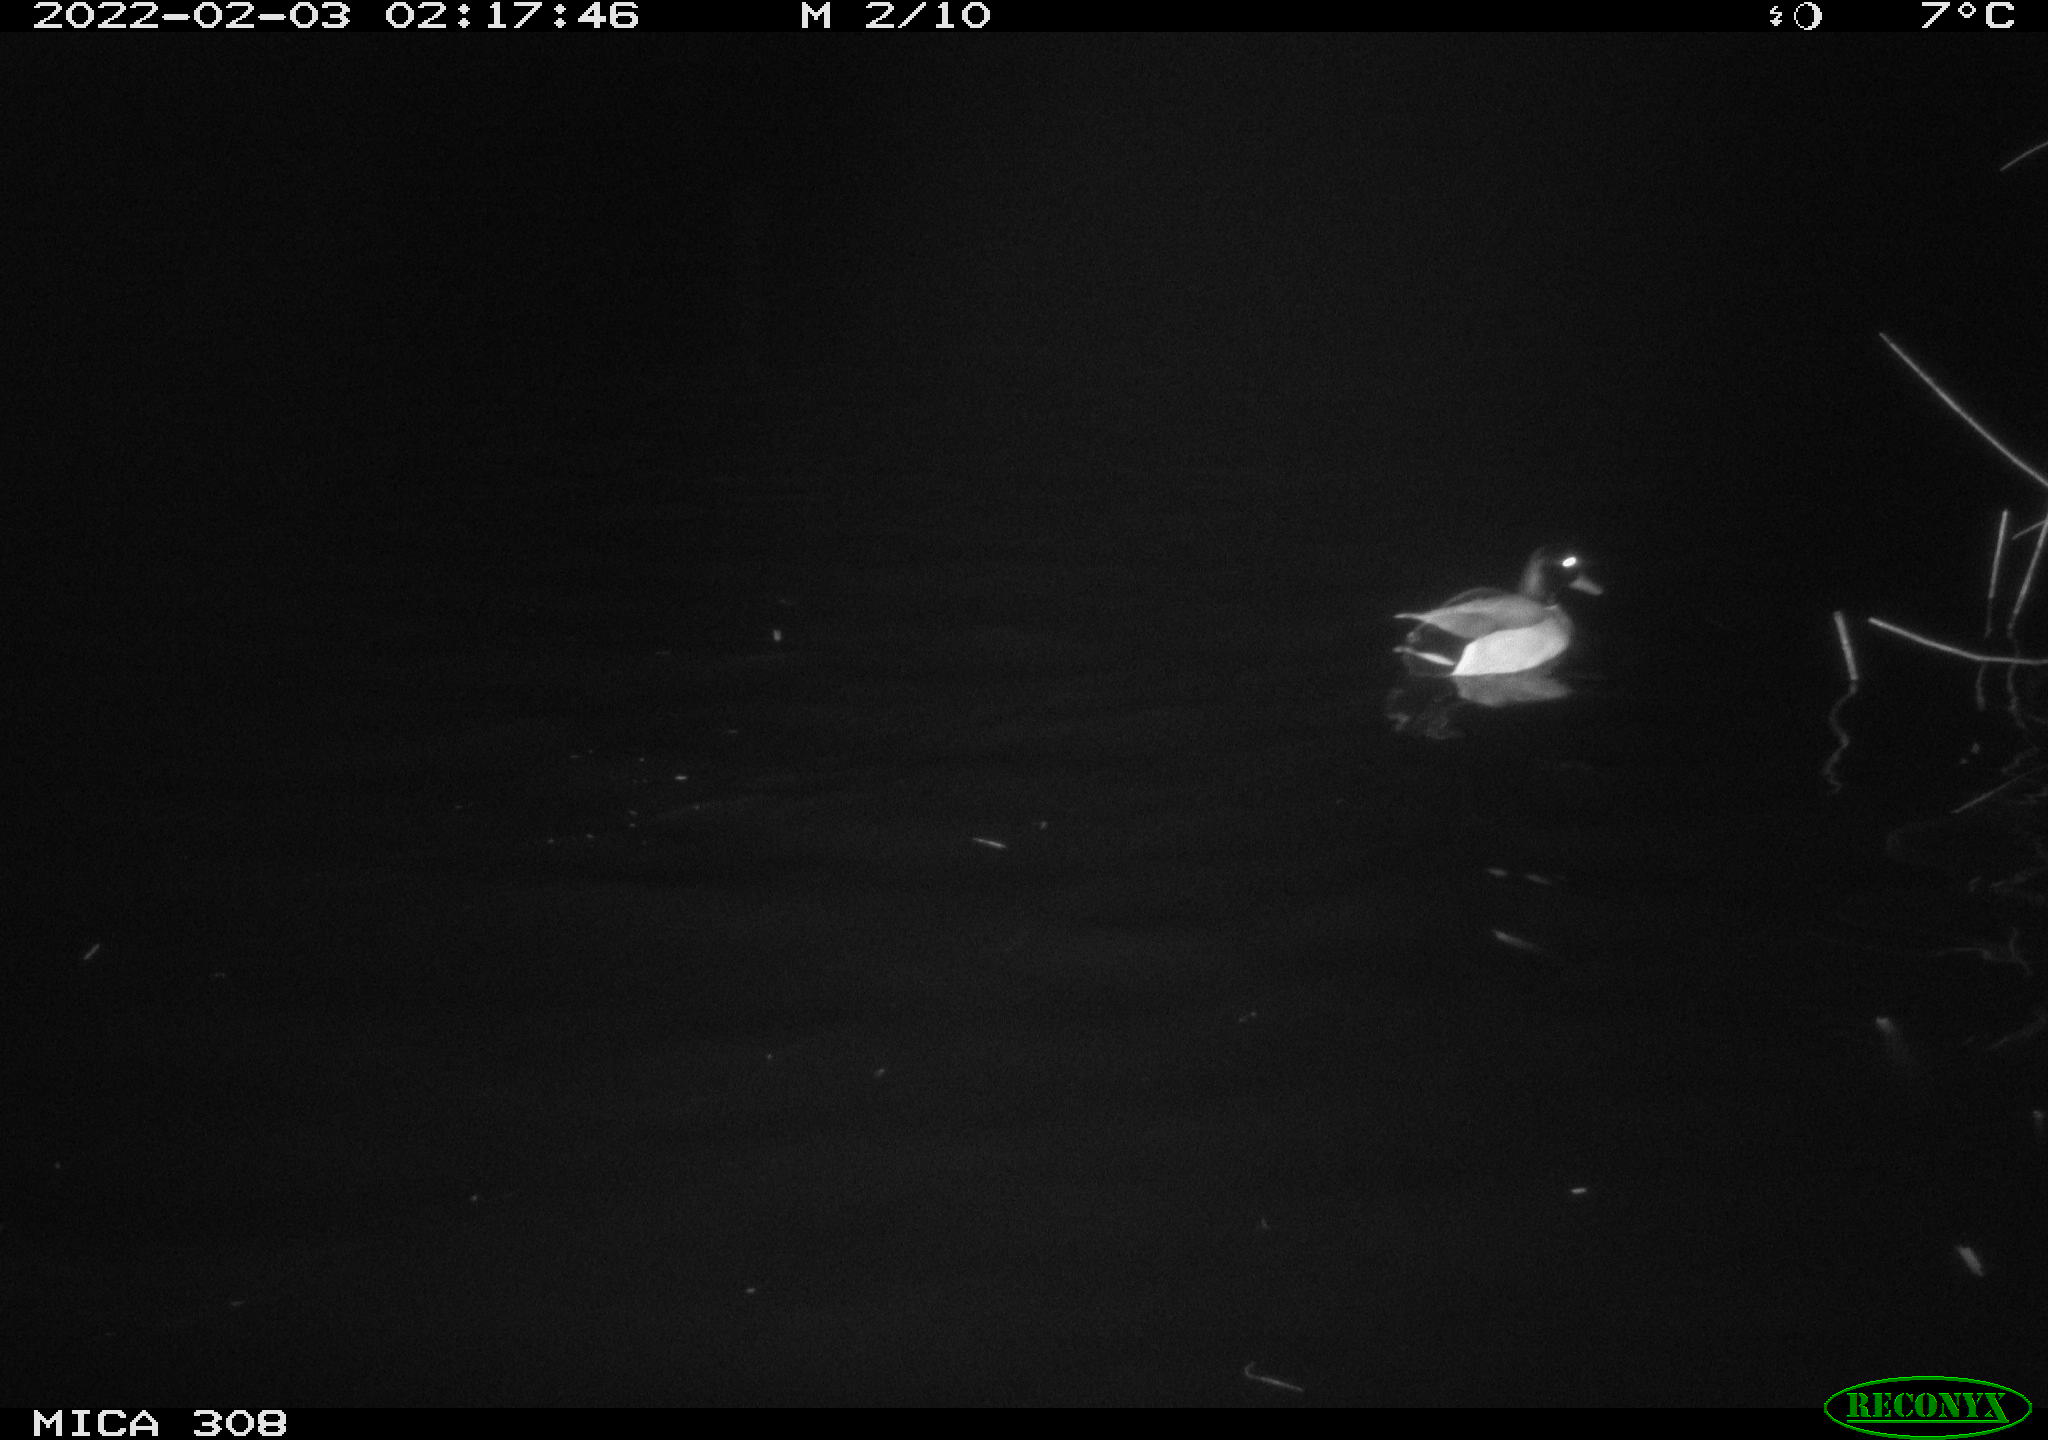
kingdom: Animalia
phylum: Chordata
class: Aves
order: Anseriformes
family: Anatidae
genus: Anas
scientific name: Anas
